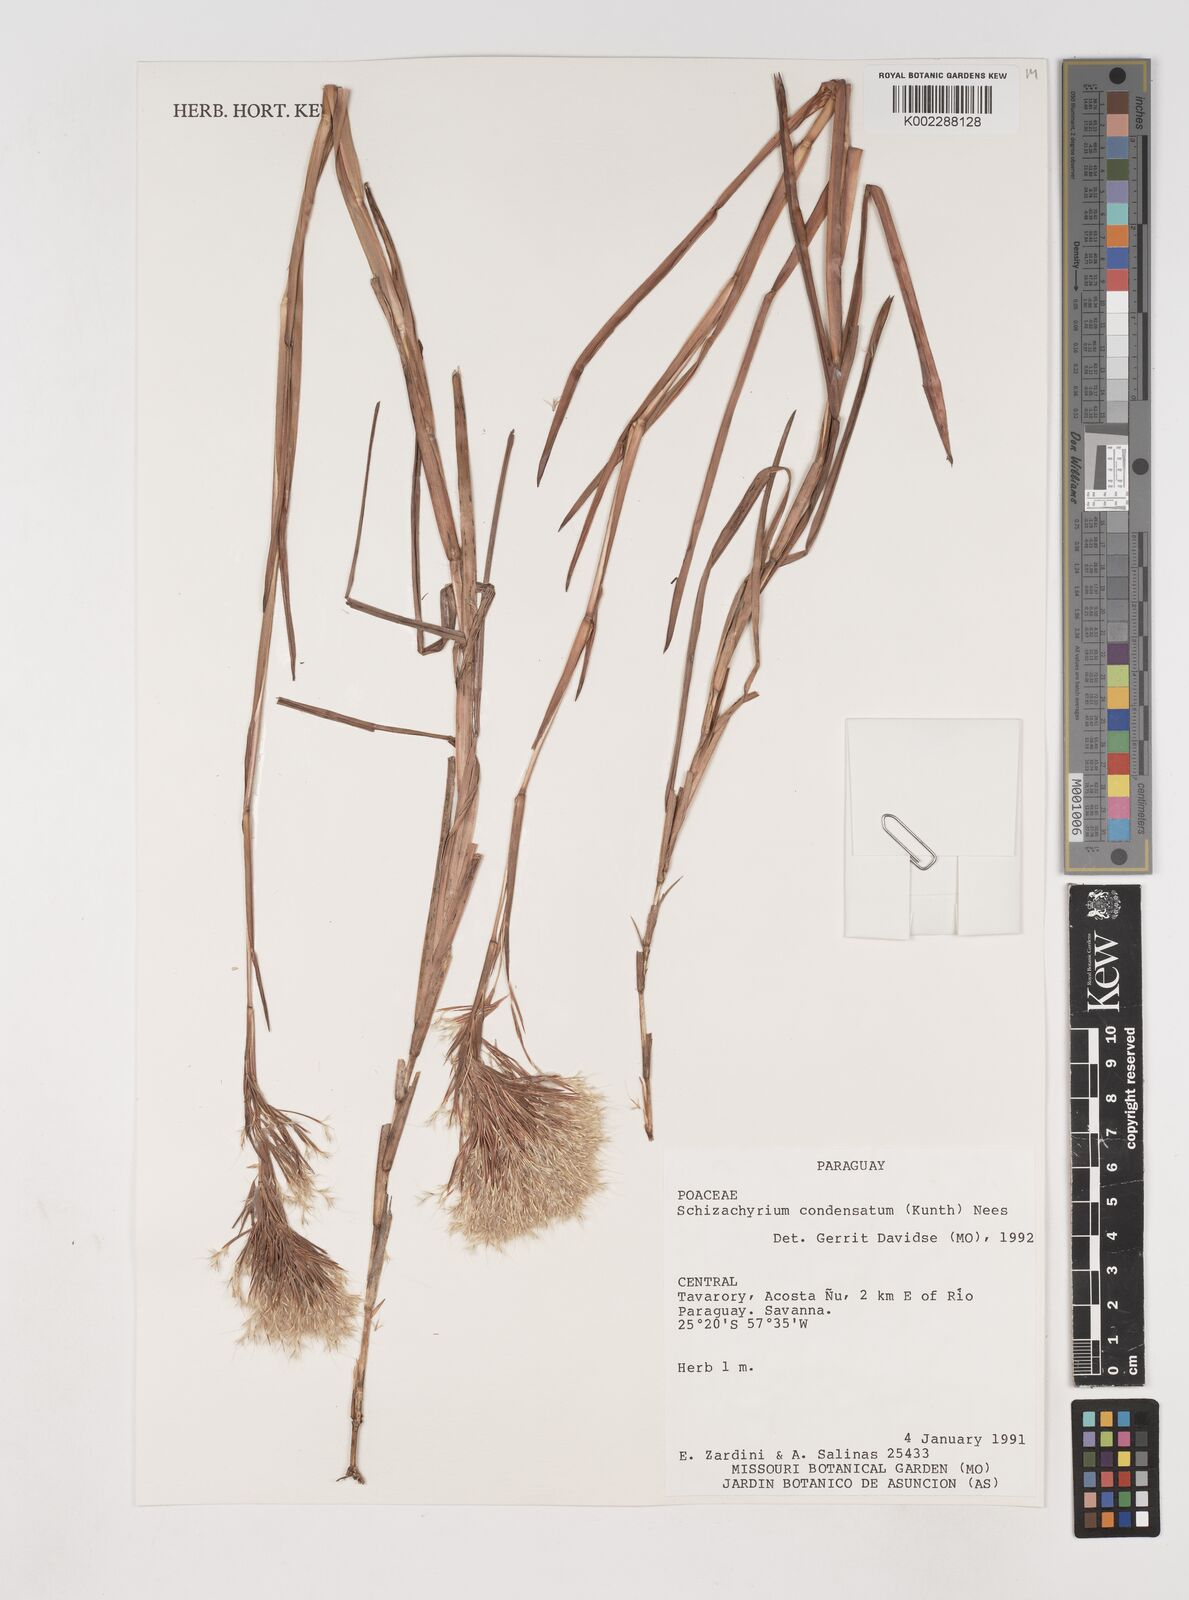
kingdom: Plantae
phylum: Tracheophyta
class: Liliopsida
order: Poales
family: Poaceae
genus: Schizachyrium
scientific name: Schizachyrium condensatum
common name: Bush beardgrass
